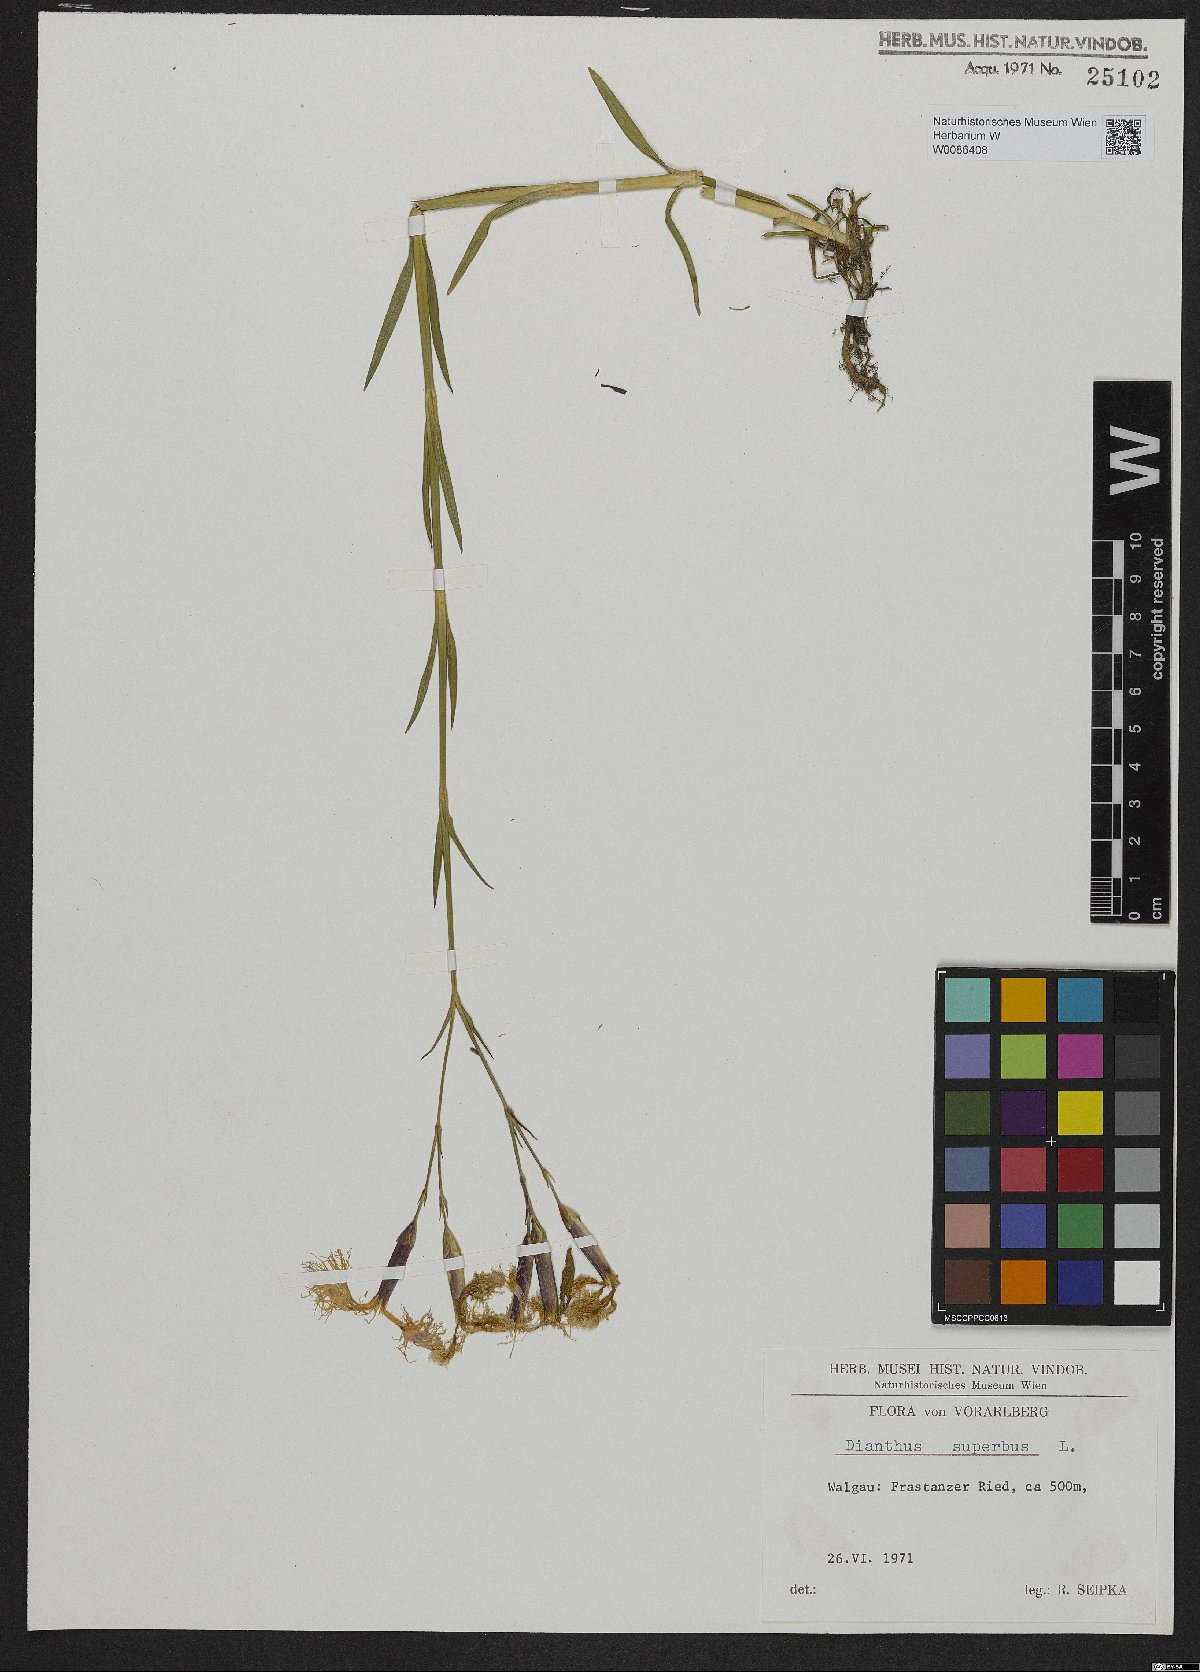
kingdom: Plantae
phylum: Tracheophyta
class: Magnoliopsida
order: Caryophyllales
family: Caryophyllaceae
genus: Dianthus
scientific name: Dianthus superbus
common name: Fringed pink
